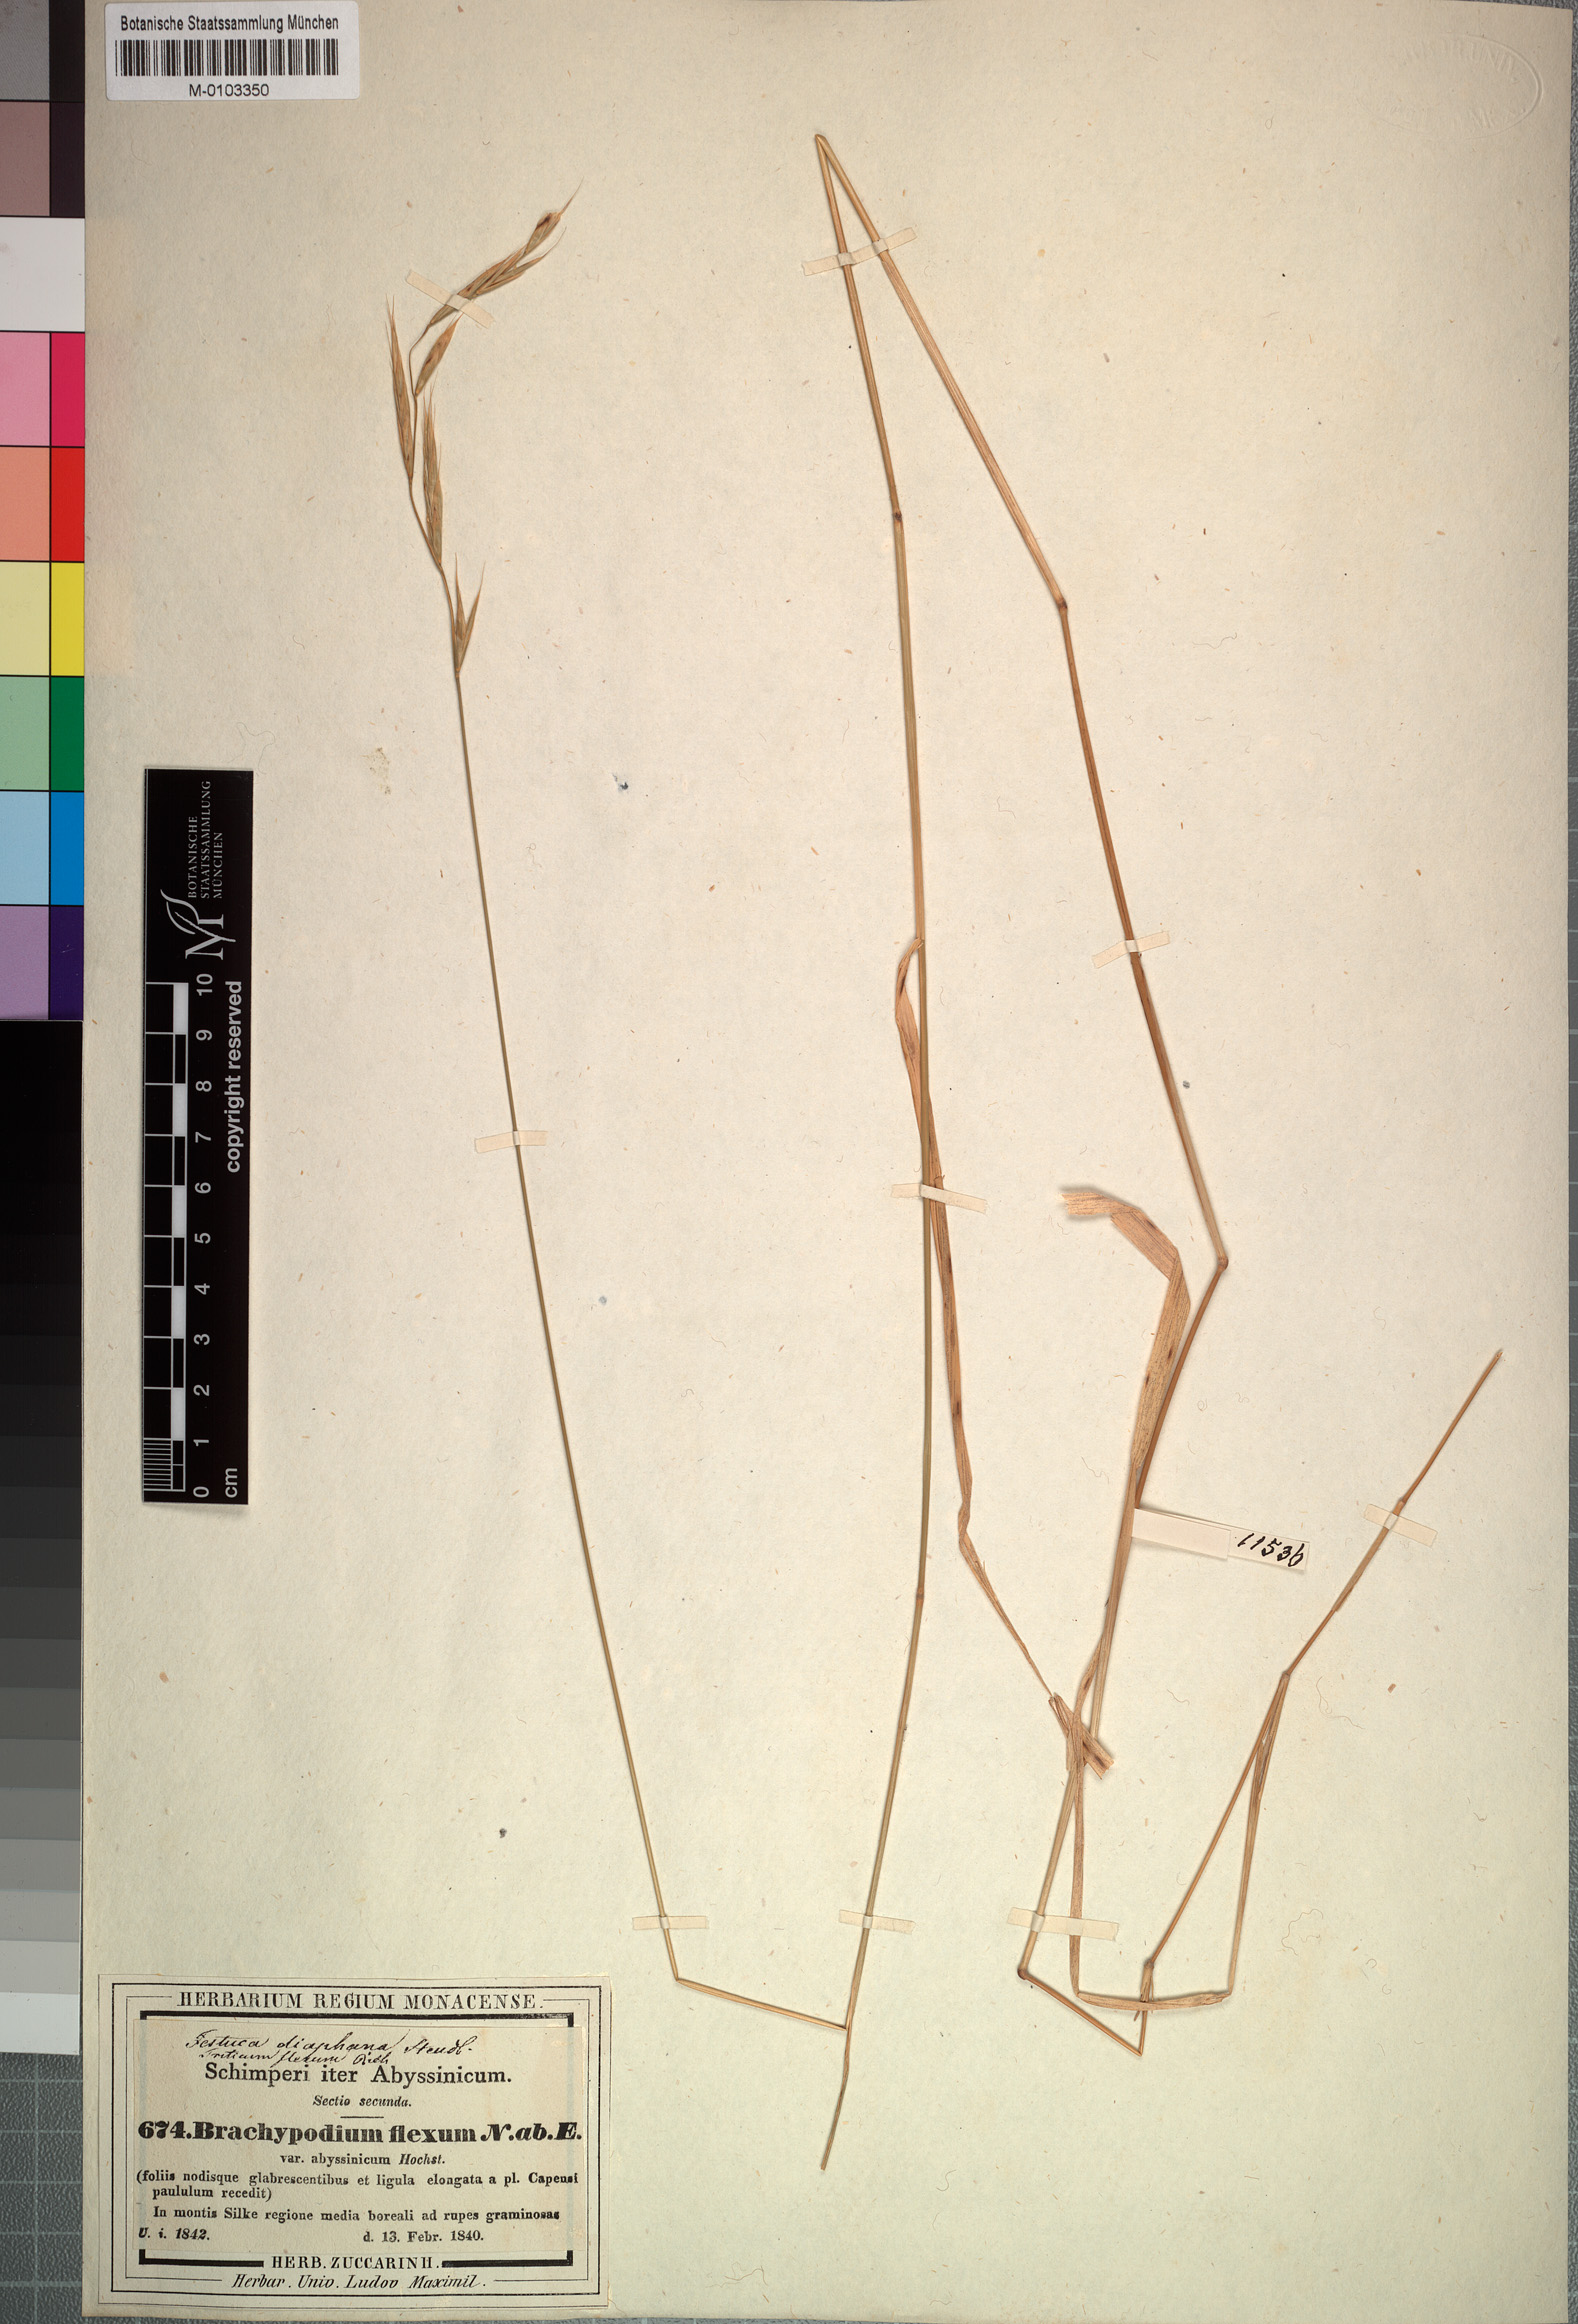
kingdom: Plantae
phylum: Tracheophyta
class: Liliopsida
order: Poales
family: Poaceae
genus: Brachypodium
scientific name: Brachypodium flexum
